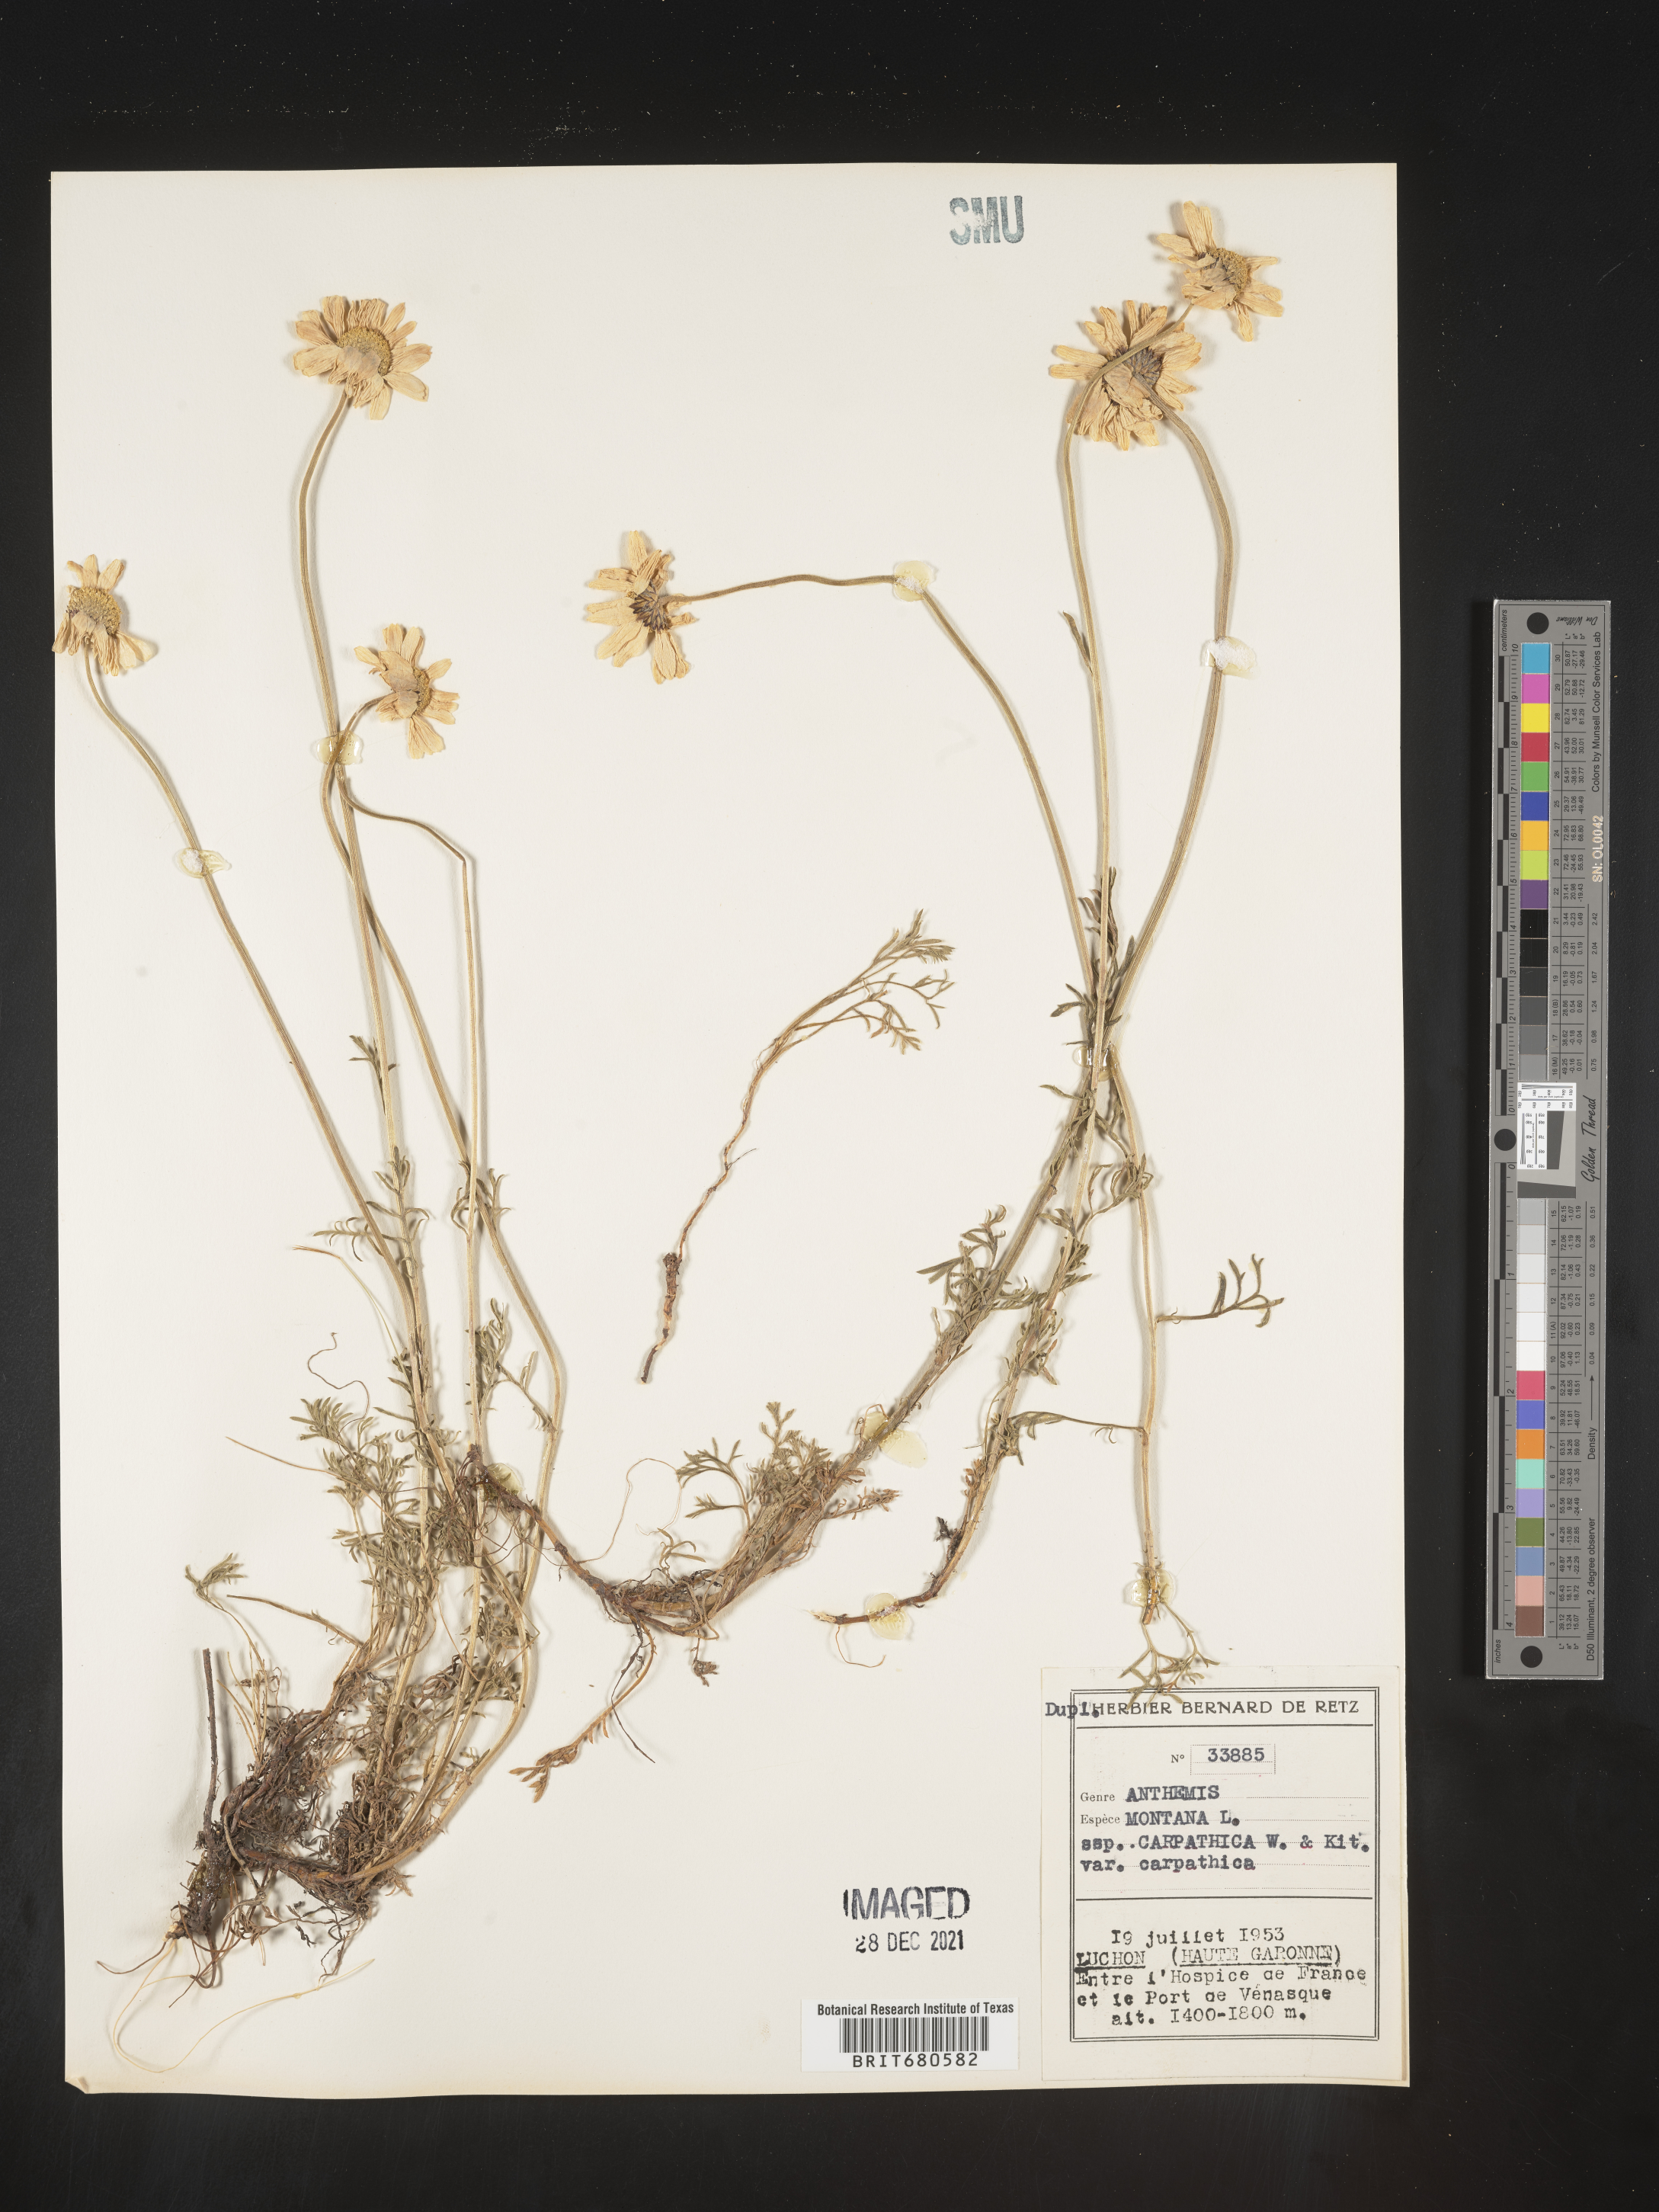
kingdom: Plantae
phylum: Tracheophyta
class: Magnoliopsida
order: Asterales
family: Asteraceae
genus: Anthemis
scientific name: Anthemis
